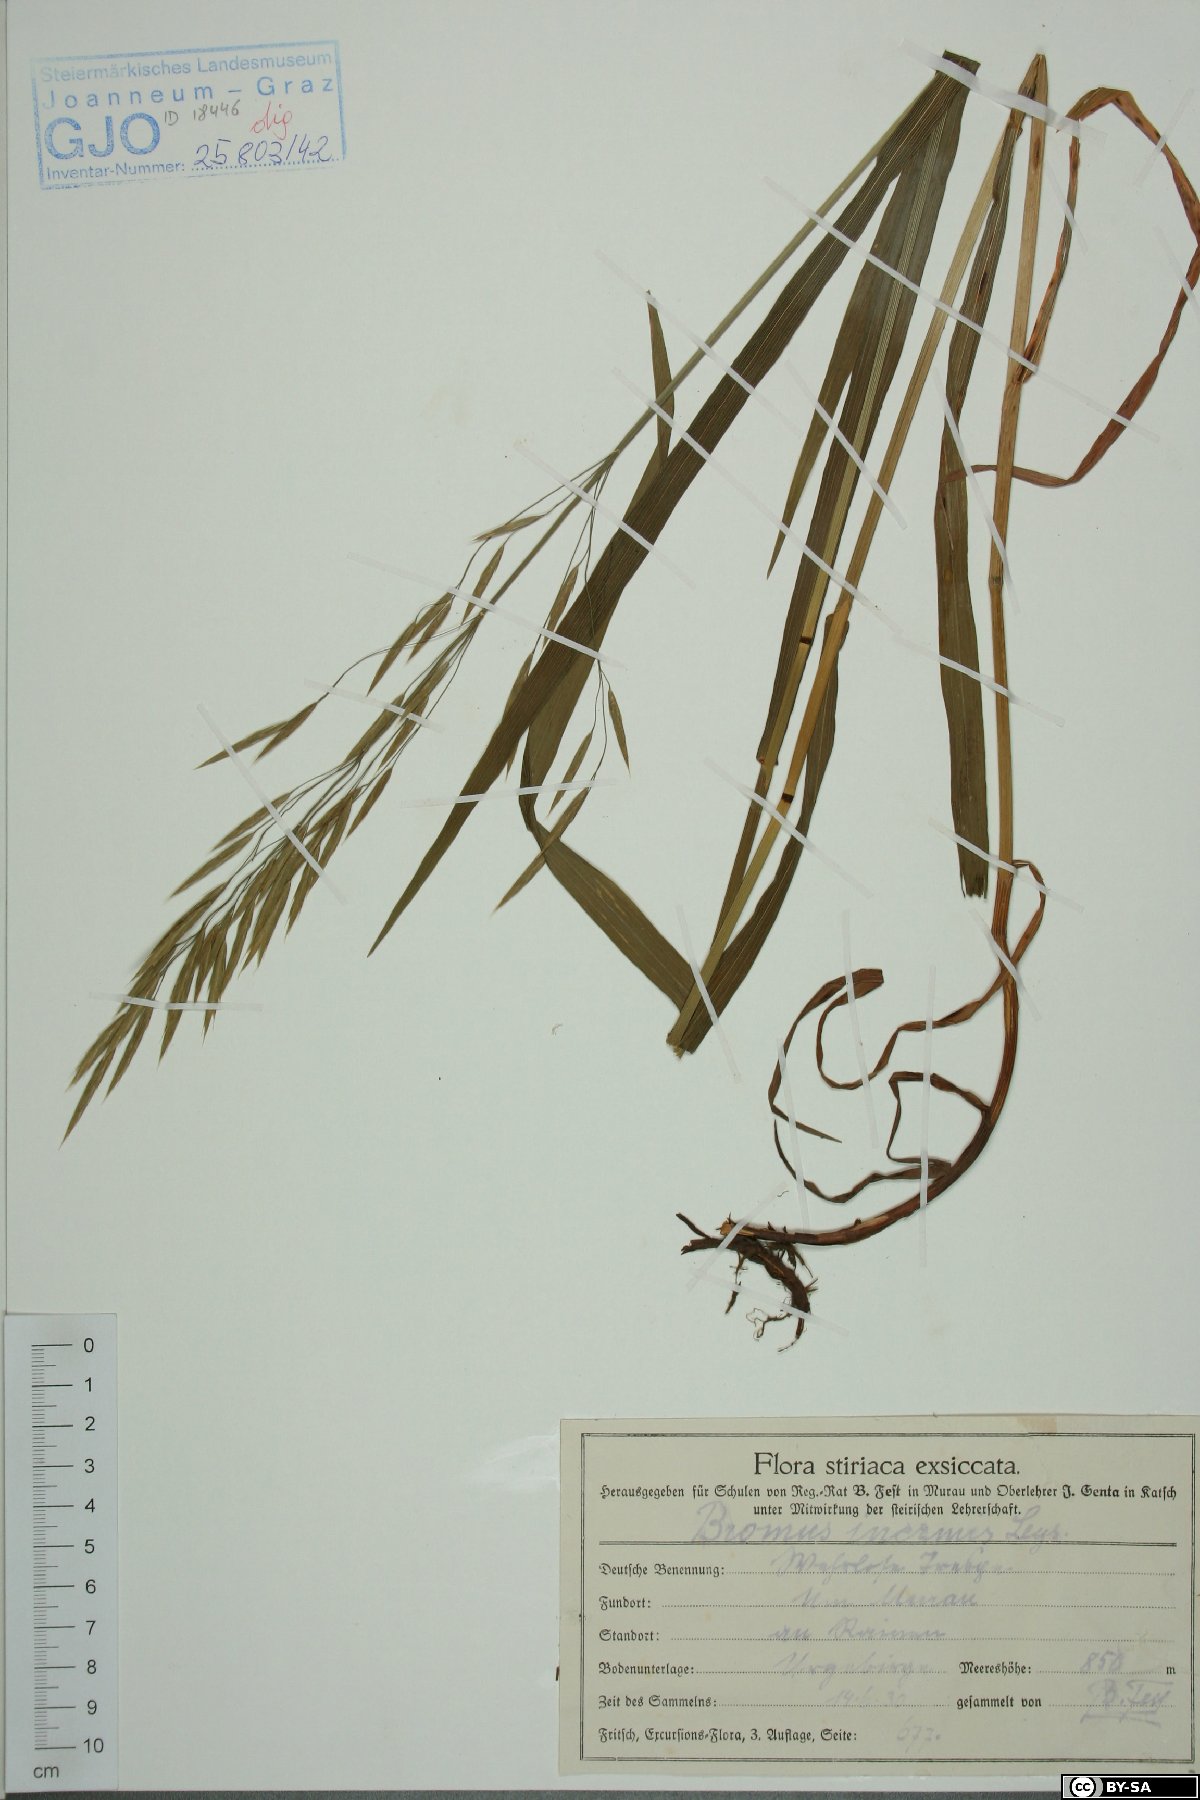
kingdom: Plantae
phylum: Tracheophyta
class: Liliopsida
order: Poales
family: Poaceae
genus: Bromus
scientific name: Bromus erectus
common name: Erect brome
